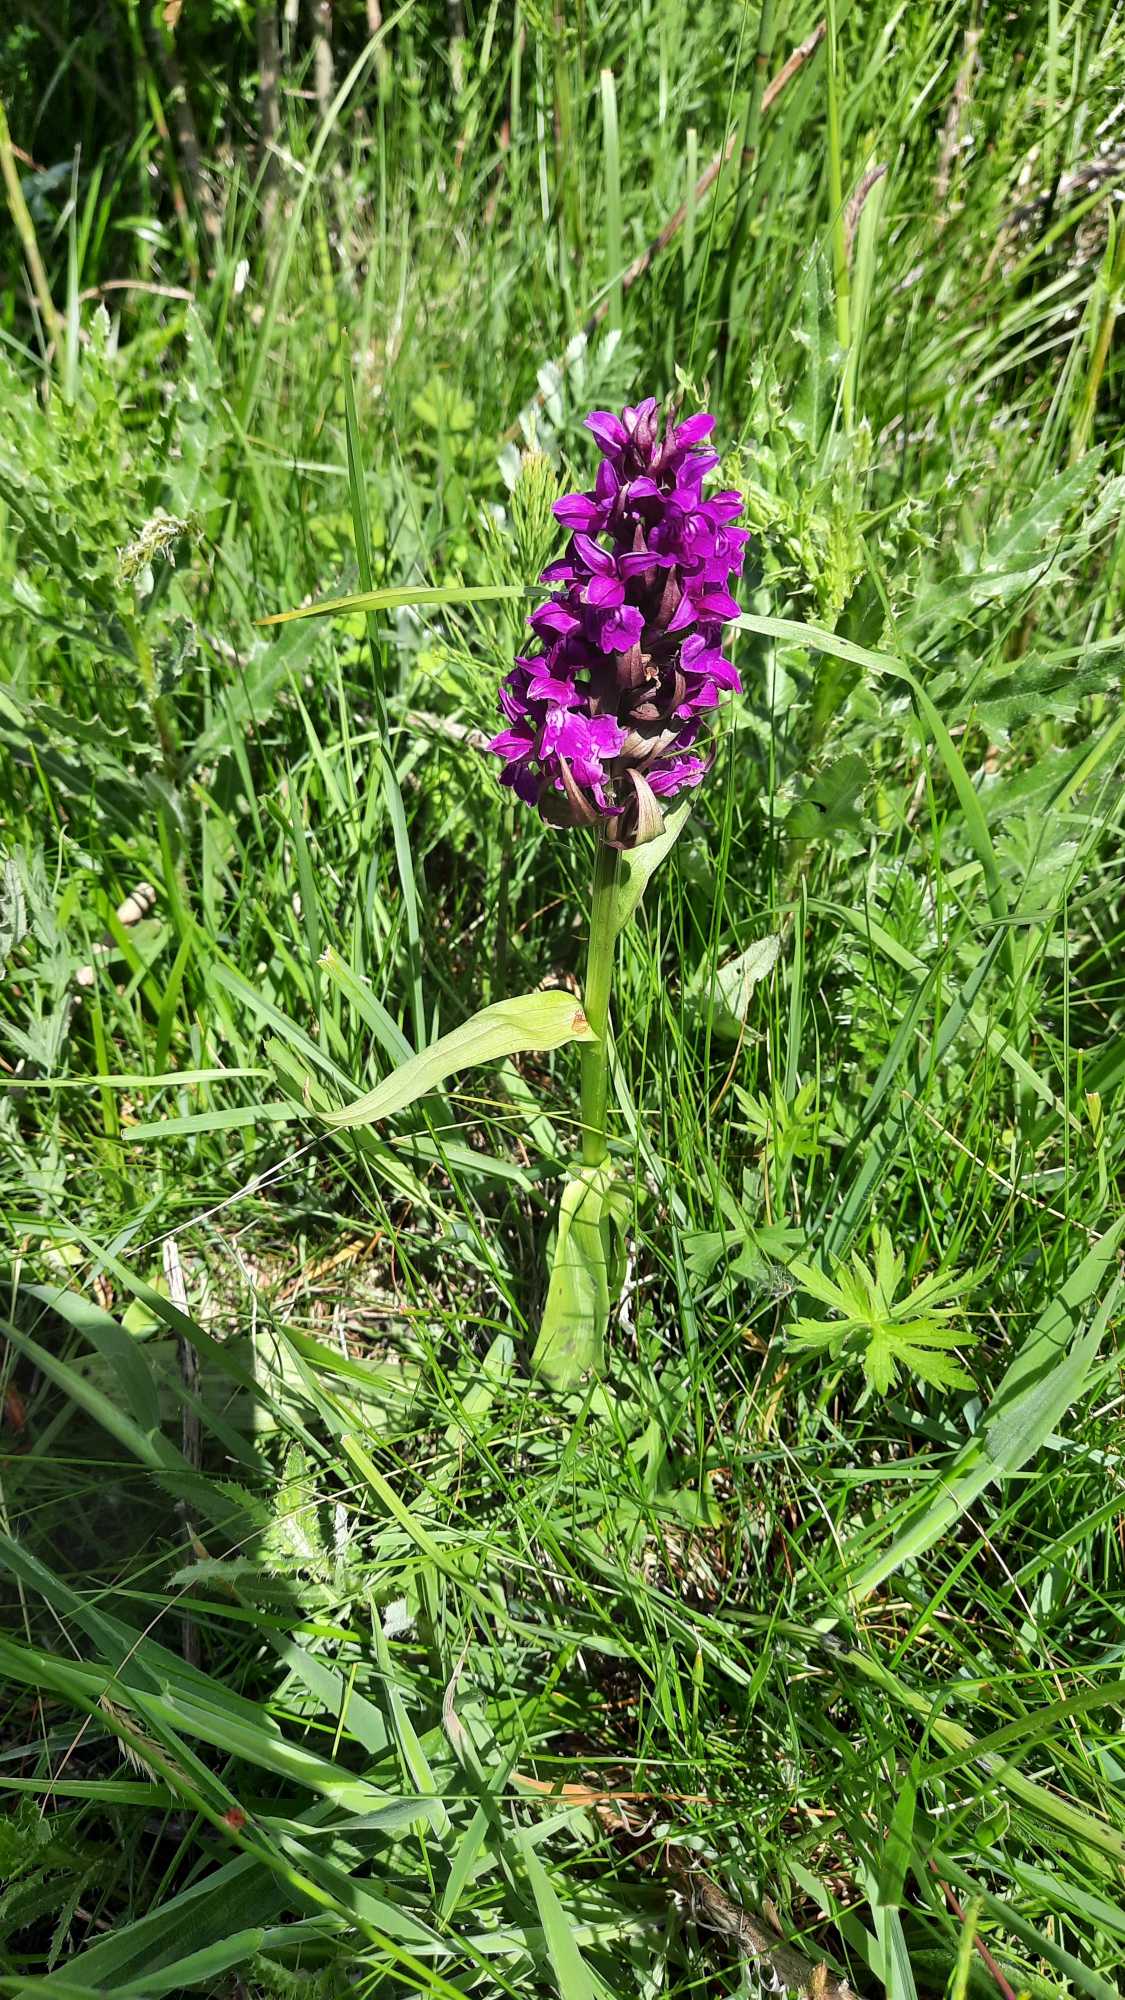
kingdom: Plantae
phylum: Tracheophyta
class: Liliopsida
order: Asparagales
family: Orchidaceae
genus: Dactylorhiza
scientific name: Dactylorhiza majalis
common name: Maj-gøgeurt
